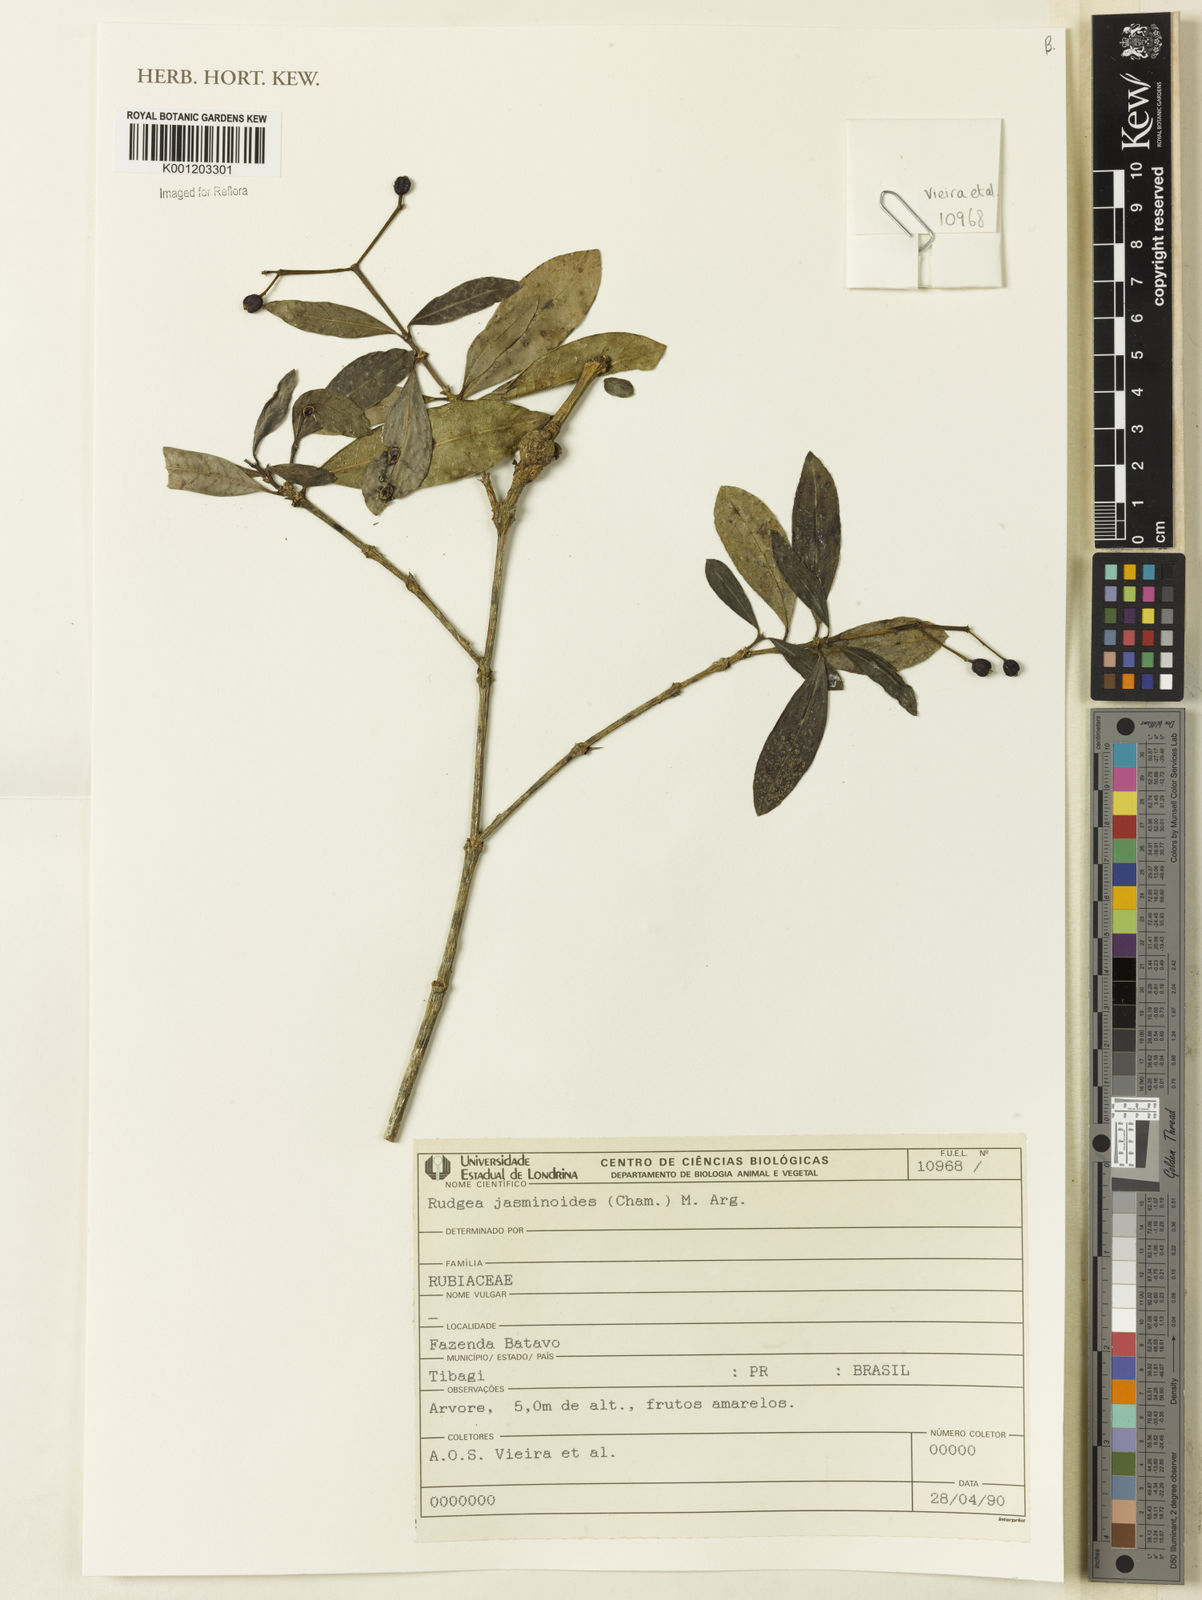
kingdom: Plantae
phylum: Tracheophyta
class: Magnoliopsida
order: Gentianales
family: Rubiaceae
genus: Rudgea
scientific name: Rudgea
